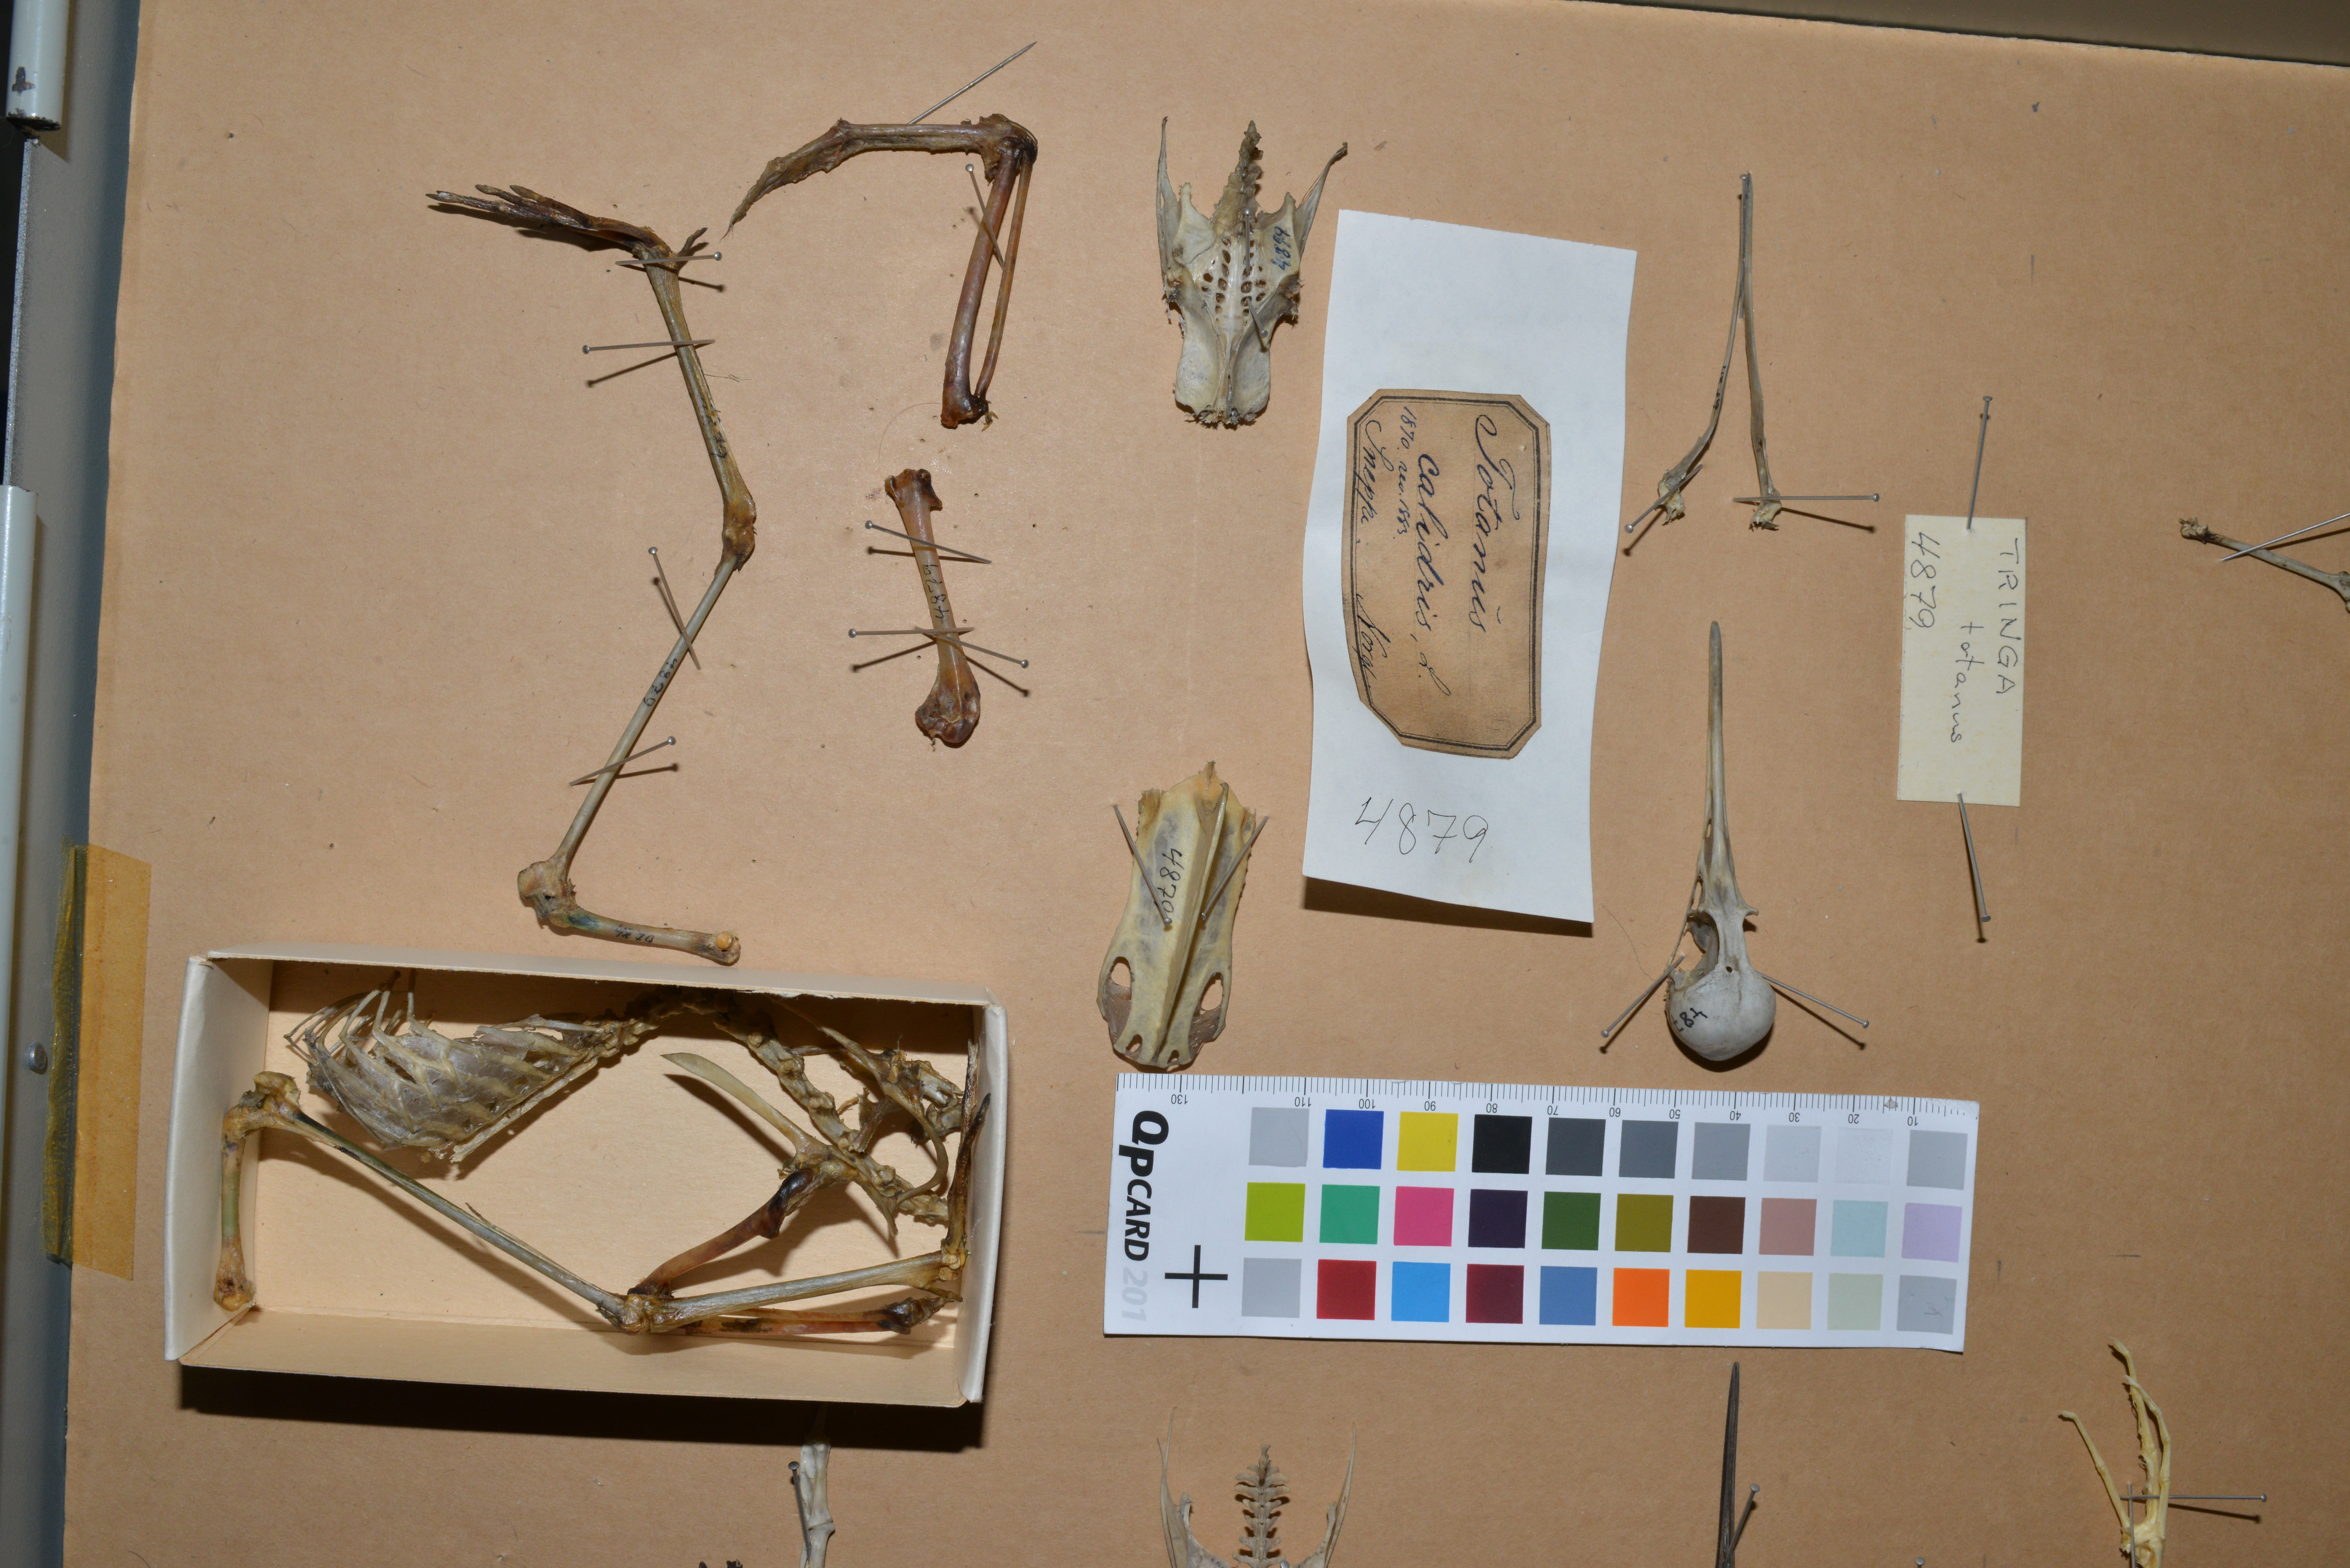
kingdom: Animalia
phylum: Chordata
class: Aves
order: Charadriiformes
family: Scolopacidae
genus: Tringa
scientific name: Tringa totanus
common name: Common redshank
